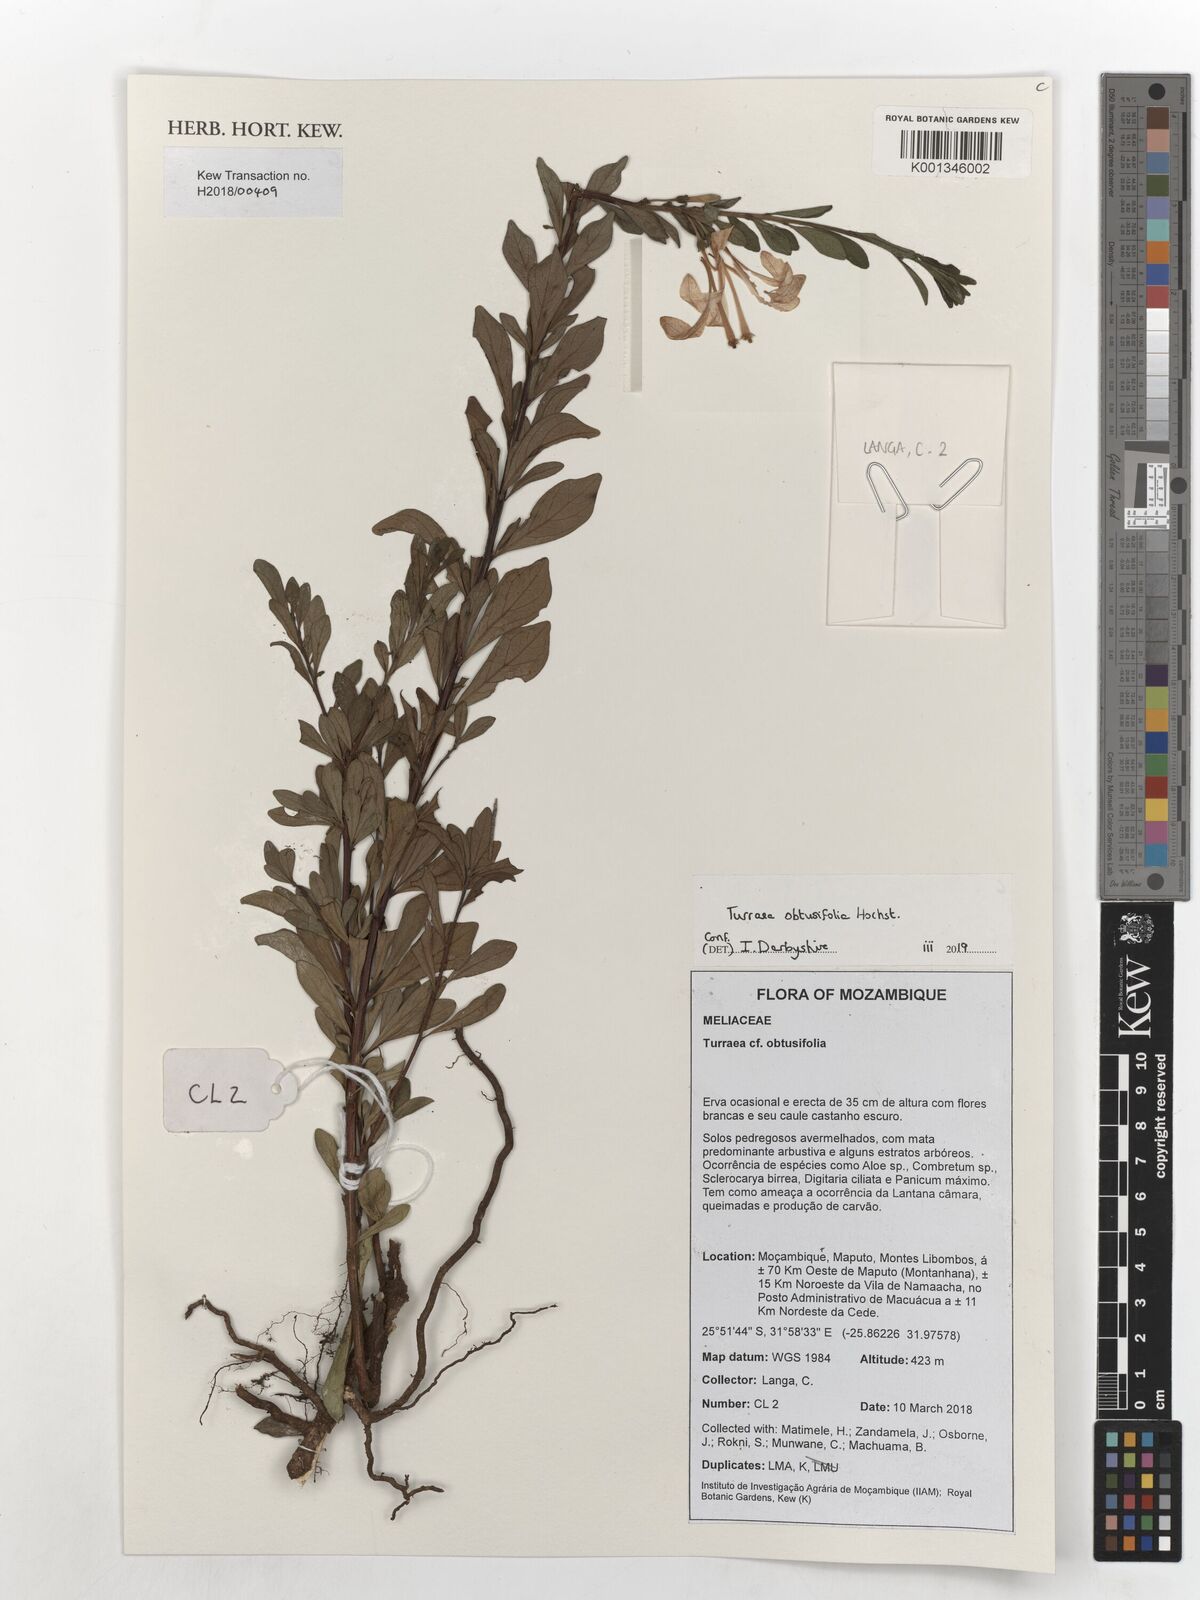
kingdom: Plantae
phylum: Tracheophyta
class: Magnoliopsida
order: Sapindales
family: Meliaceae
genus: Turraea
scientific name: Turraea obtusifolia
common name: Small honeysuckle tree
